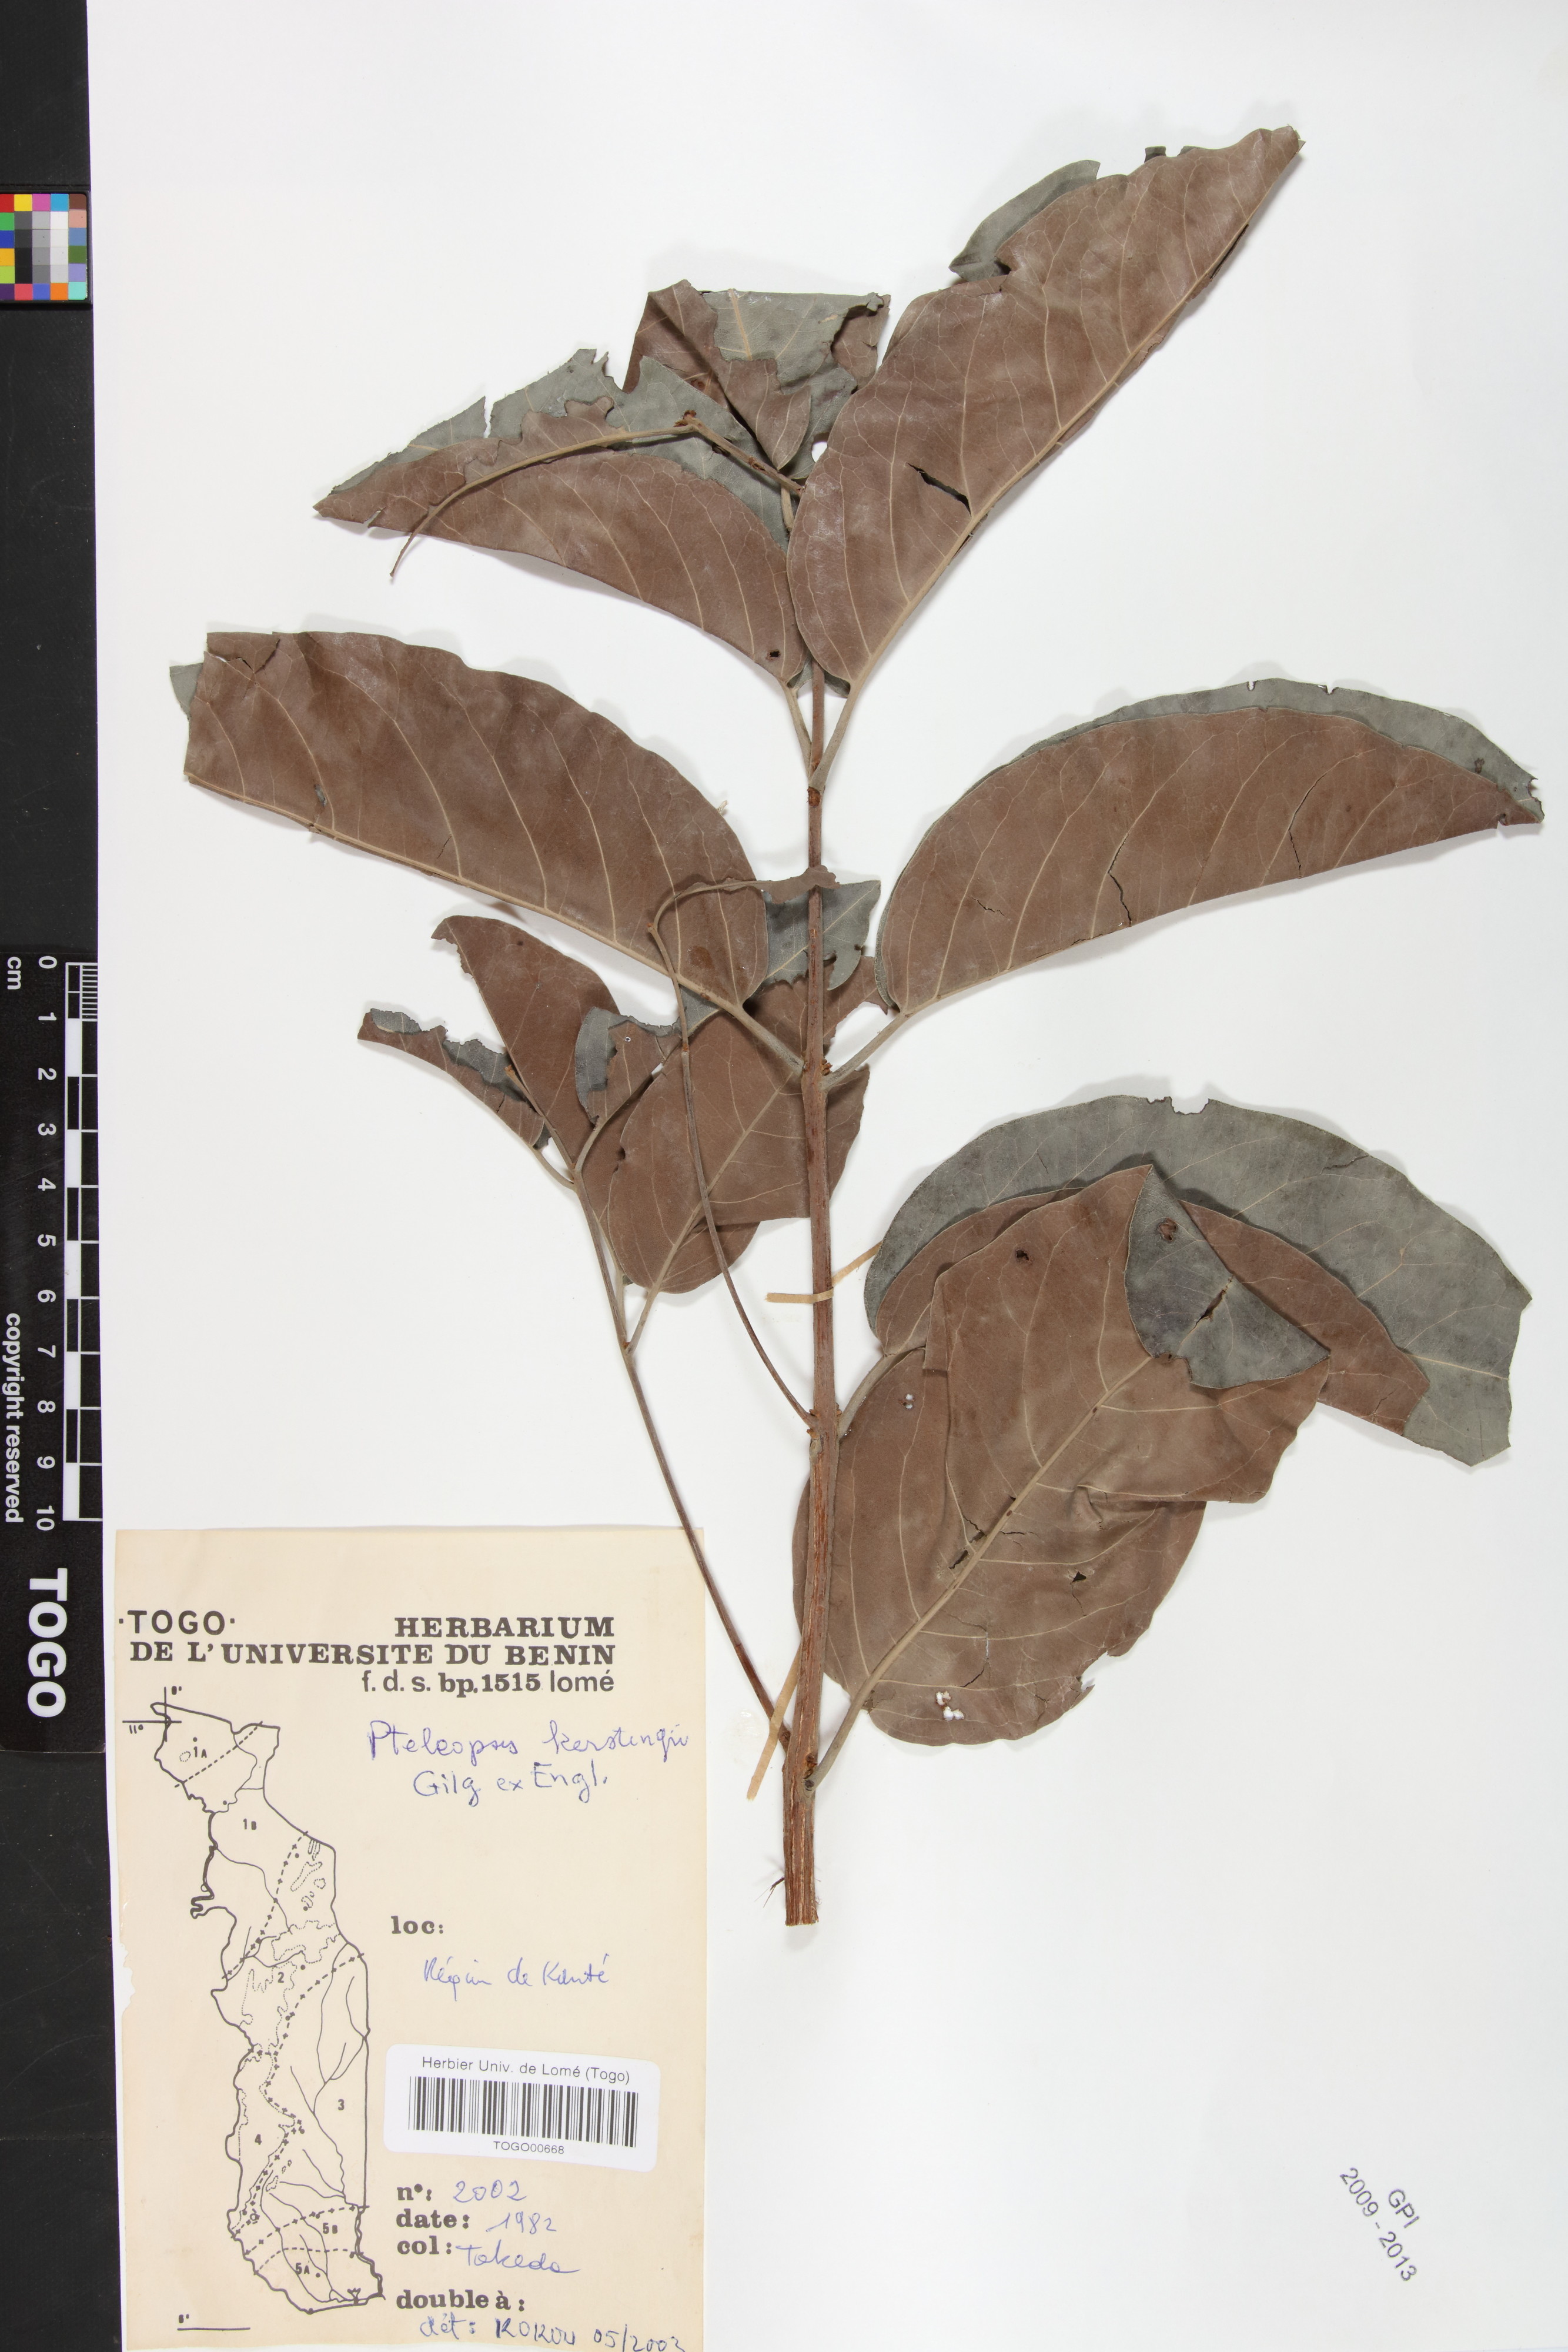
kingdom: Plantae
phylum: Tracheophyta
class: Magnoliopsida
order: Myrtales
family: Combretaceae
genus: Terminalia
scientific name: Terminalia mollis
